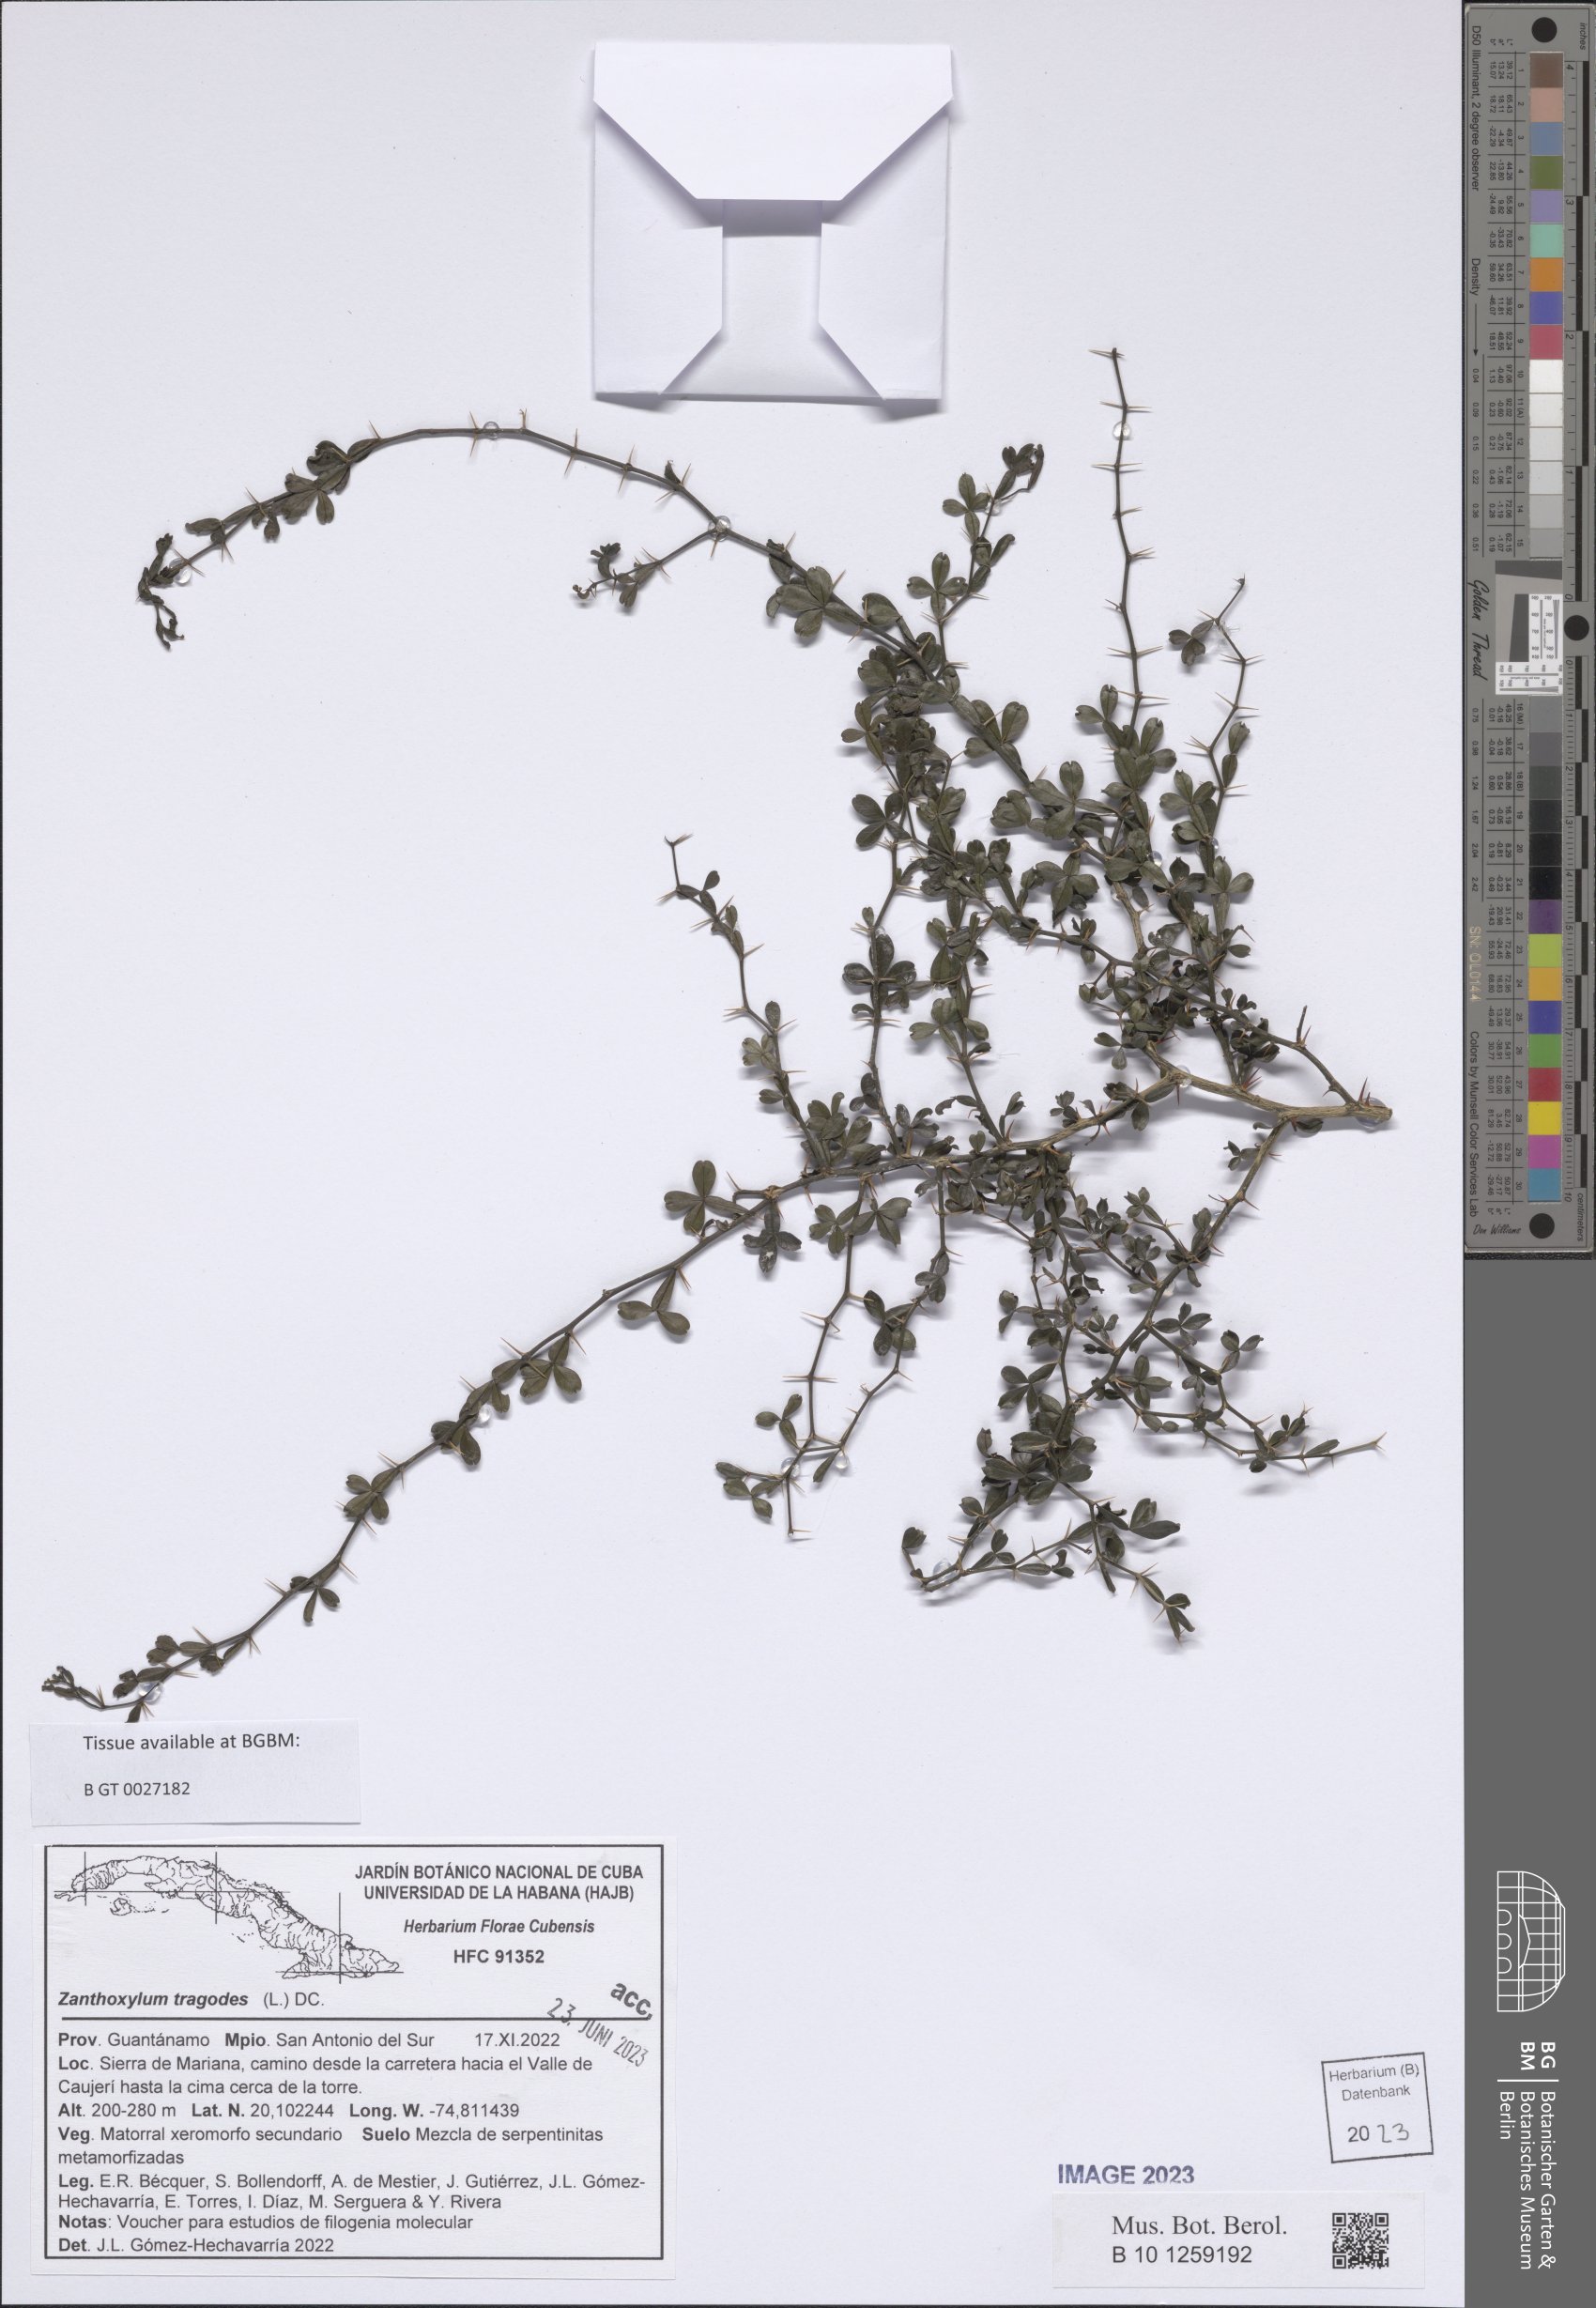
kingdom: Plantae
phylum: Tracheophyta
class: Magnoliopsida
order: Sapindales
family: Rutaceae
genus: Zanthoxylum
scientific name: Zanthoxylum tragodes
